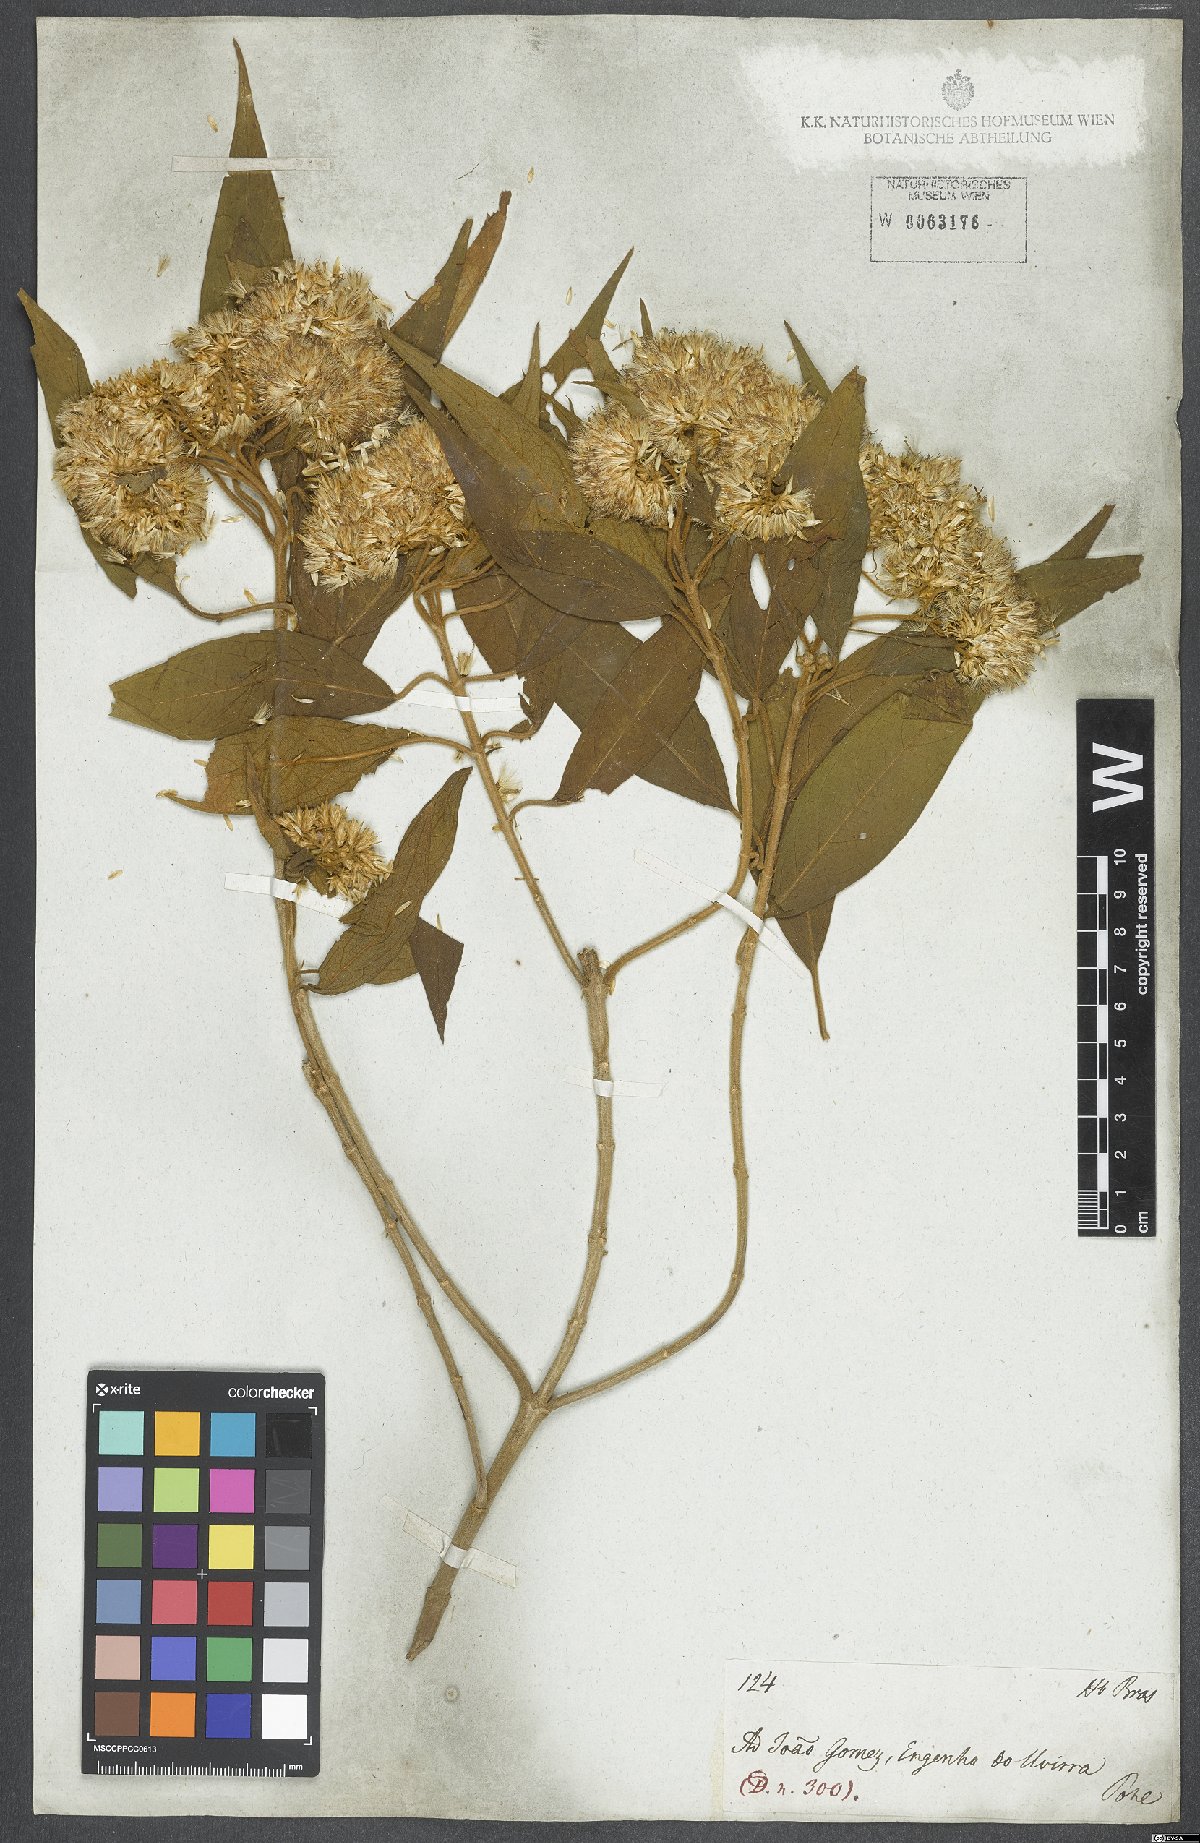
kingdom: Plantae
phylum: Tracheophyta
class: Magnoliopsida
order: Asterales
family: Asteraceae
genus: Eupatorium
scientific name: Eupatorium
